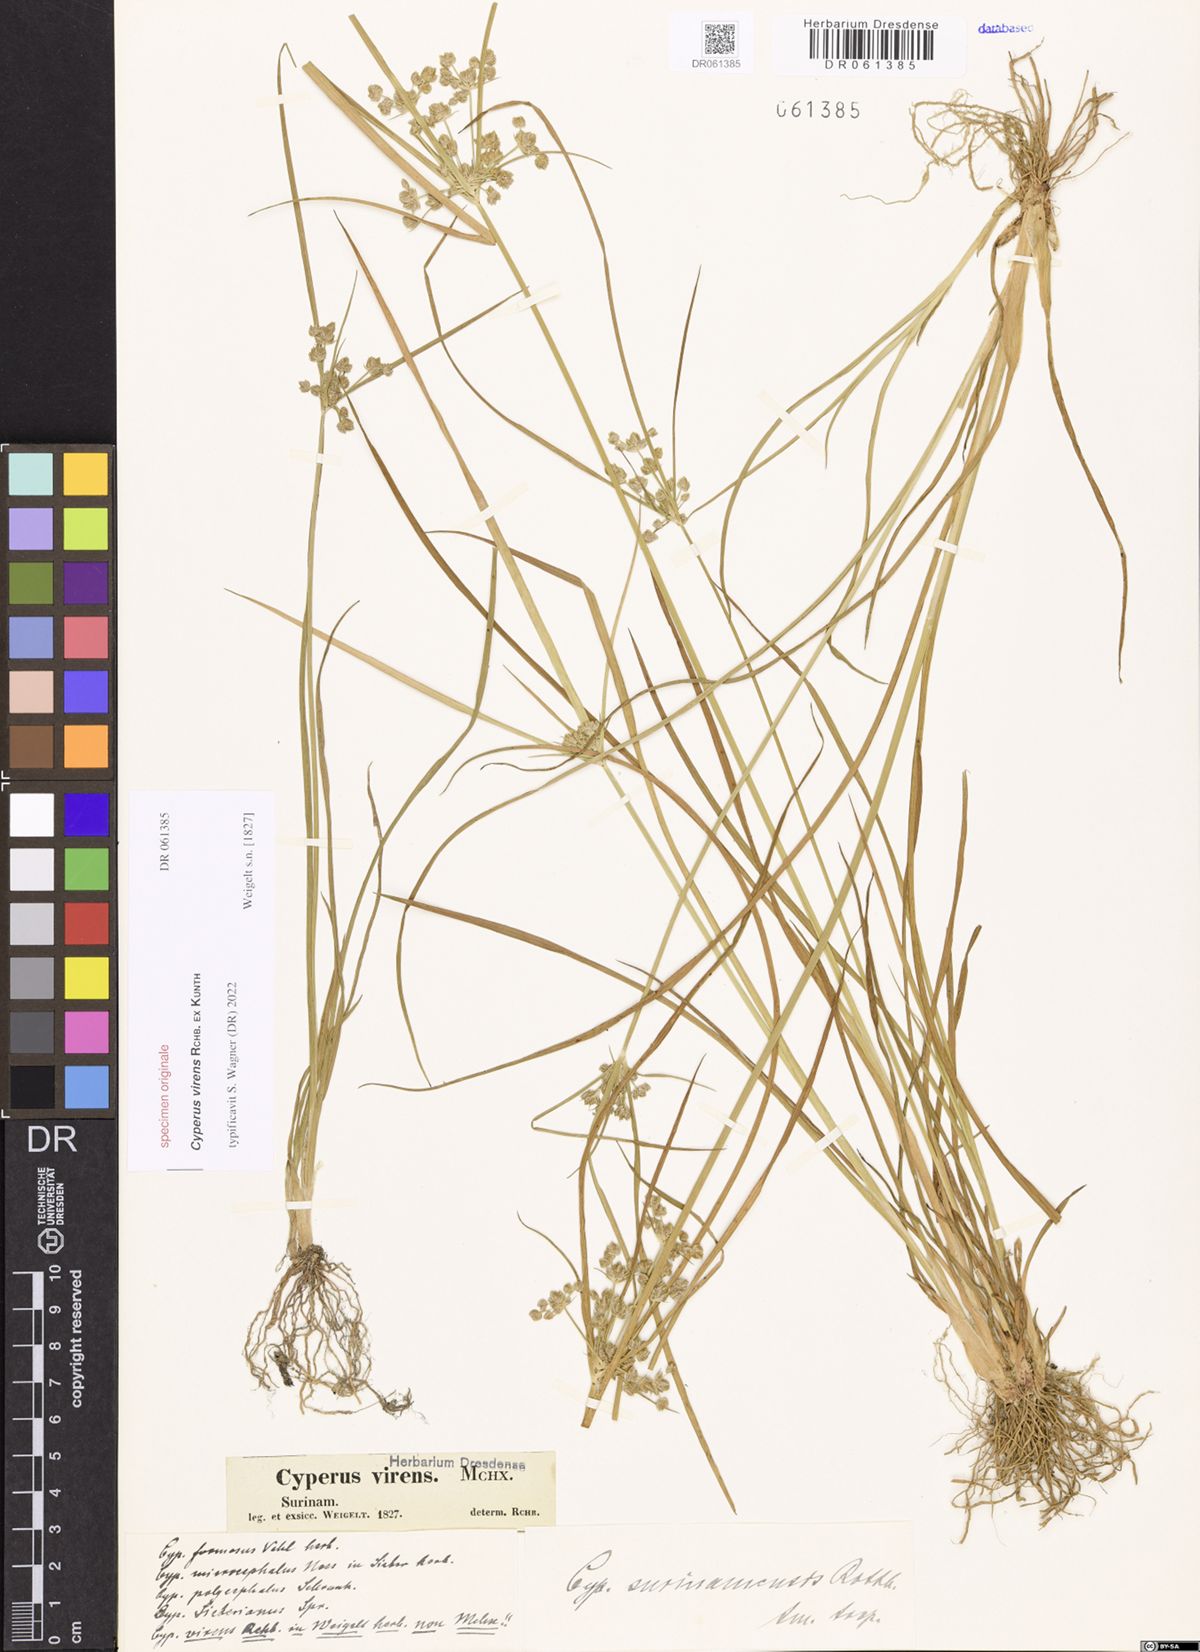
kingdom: Plantae
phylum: Tracheophyta
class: Liliopsida
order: Poales
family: Cyperaceae
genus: Cyperus
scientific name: Cyperus virens
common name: Green flatsedge
